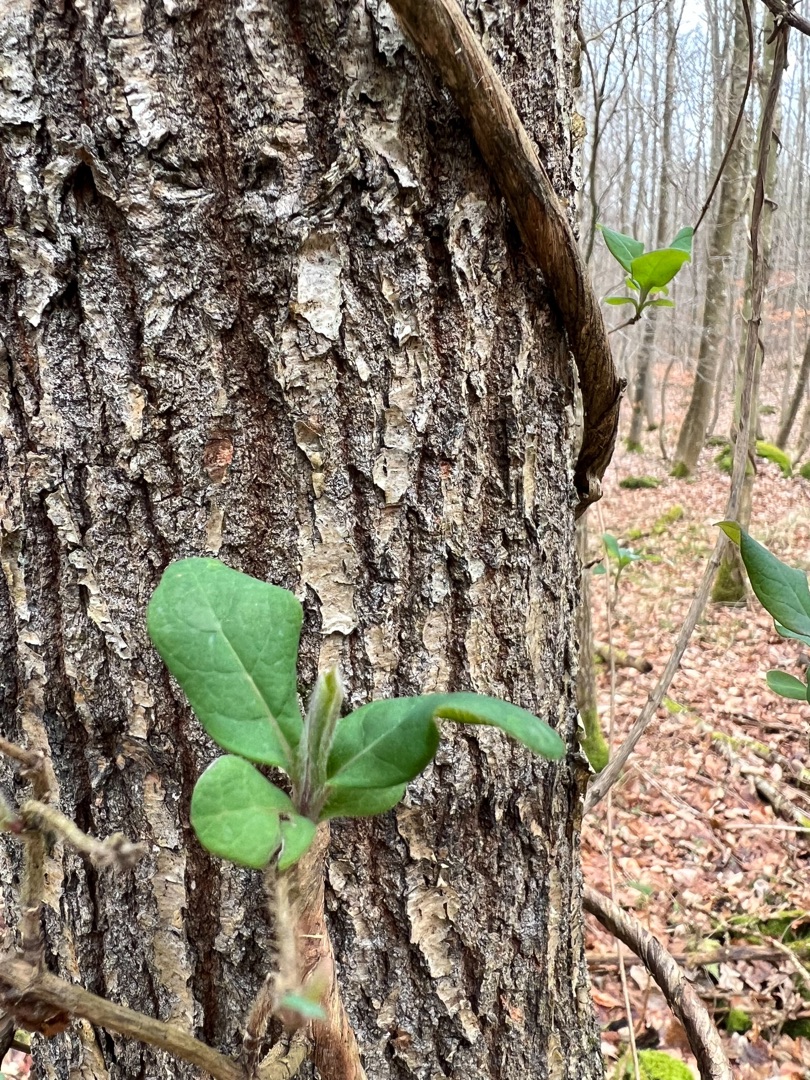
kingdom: Plantae
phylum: Tracheophyta
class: Magnoliopsida
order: Dipsacales
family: Caprifoliaceae
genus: Lonicera
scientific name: Lonicera periclymenum
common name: Almindelig gedeblad
